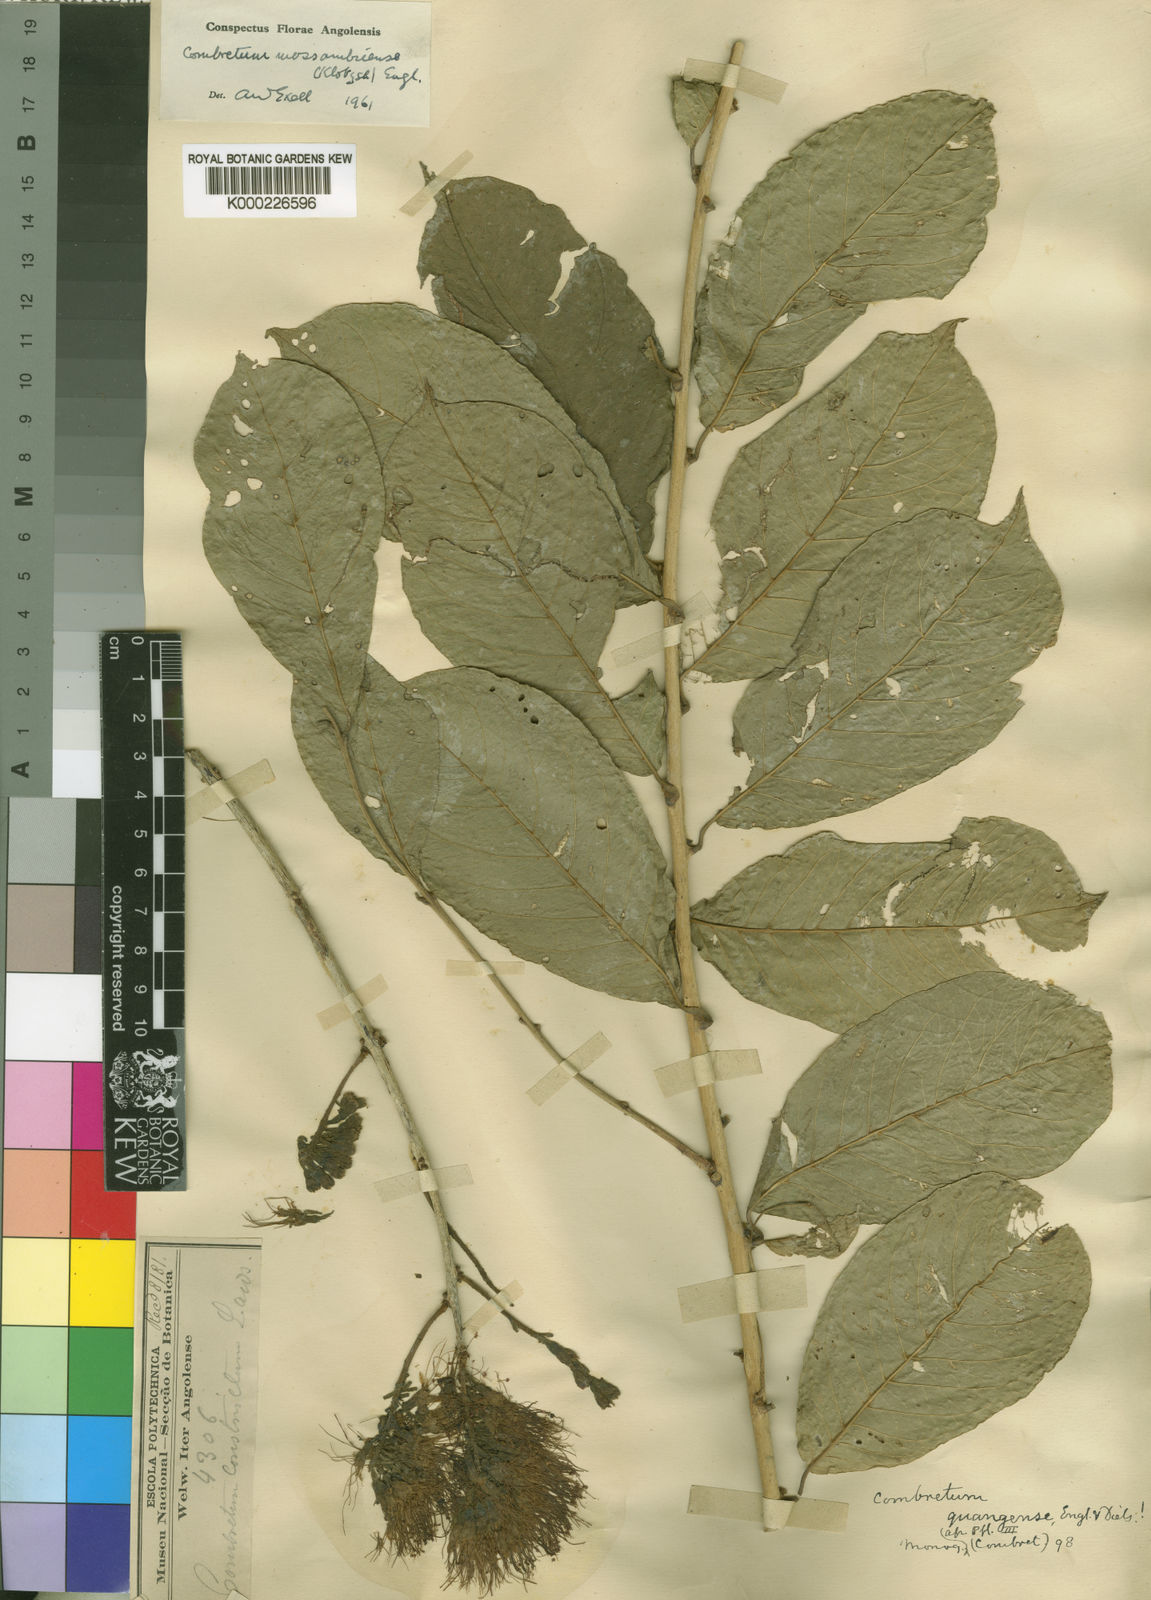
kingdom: Plantae
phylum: Tracheophyta
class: Magnoliopsida
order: Myrtales
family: Combretaceae
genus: Combretum
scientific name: Combretum mossambicense
